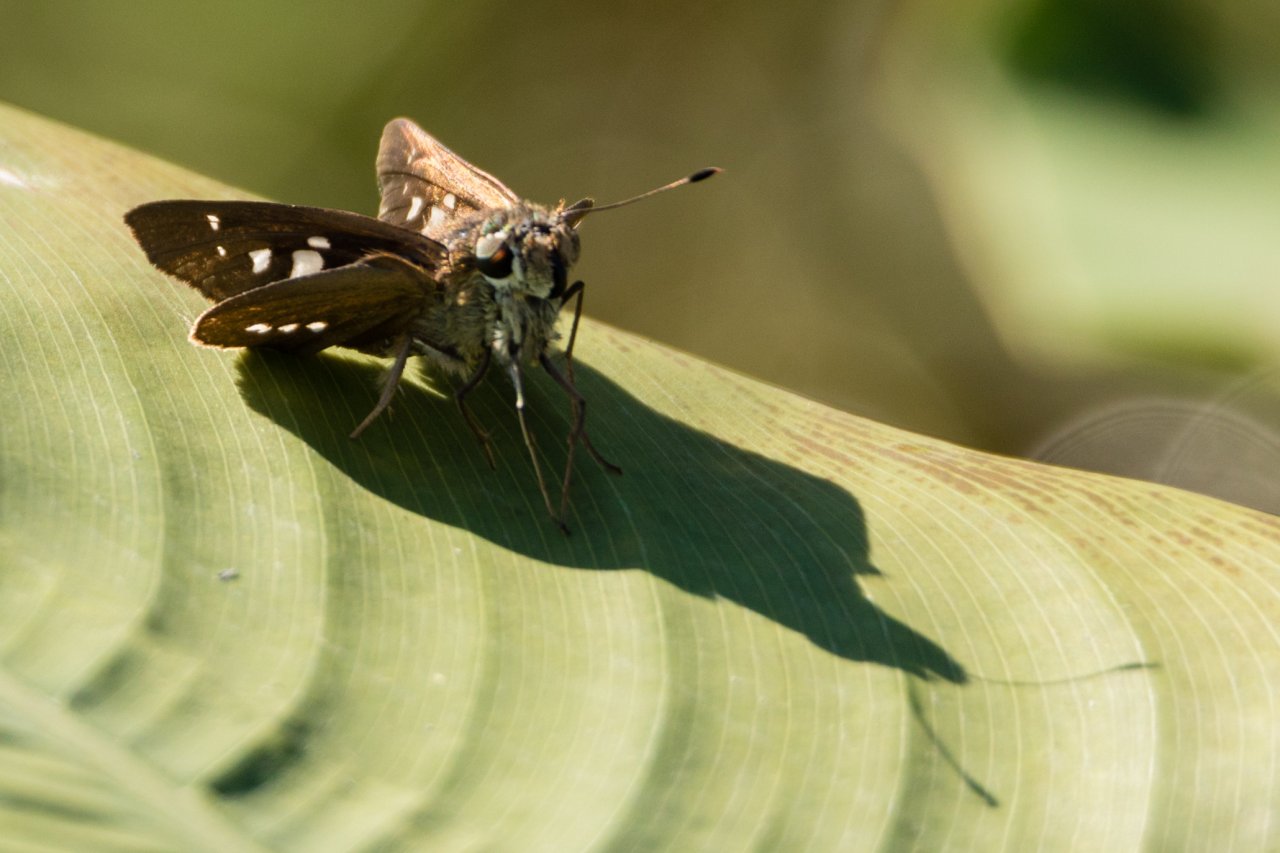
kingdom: Animalia
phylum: Arthropoda
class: Insecta
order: Lepidoptera
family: Hesperiidae
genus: Calpodes
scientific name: Calpodes ethlius
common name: Brazilian Skipper
